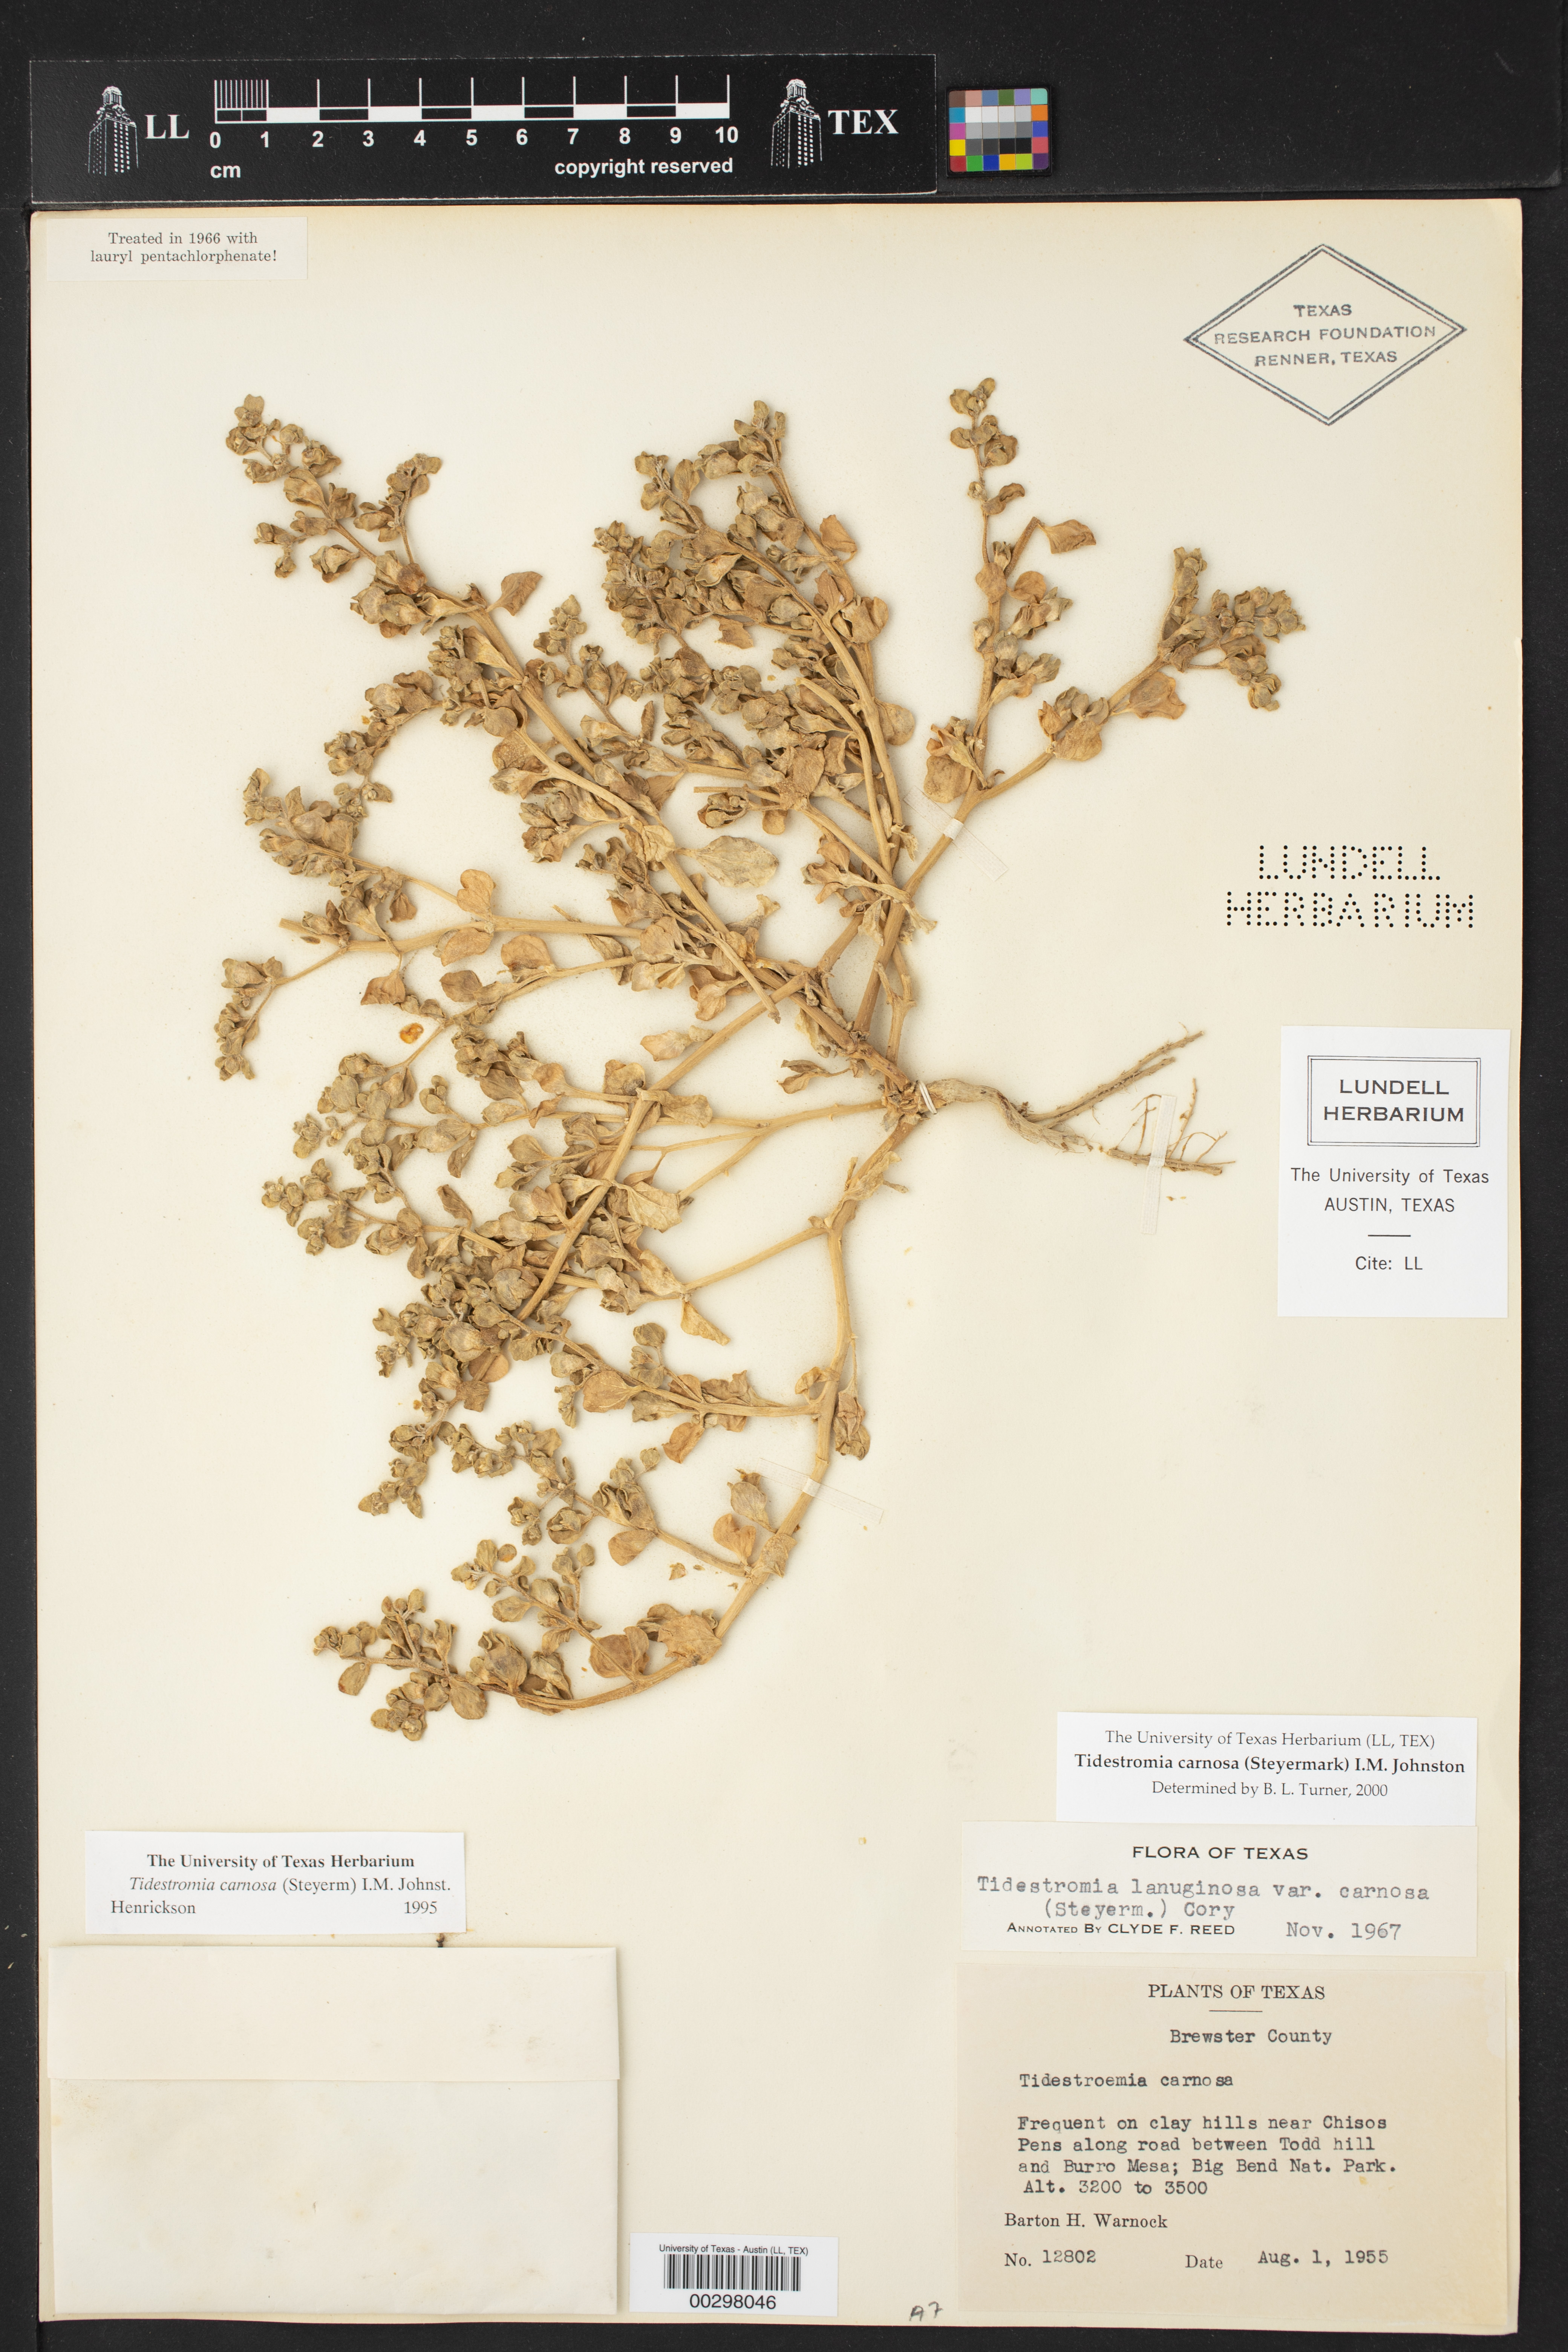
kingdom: Plantae
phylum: Tracheophyta
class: Magnoliopsida
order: Caryophyllales
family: Amaranthaceae
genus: Tidestromia
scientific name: Tidestromia carnosa
